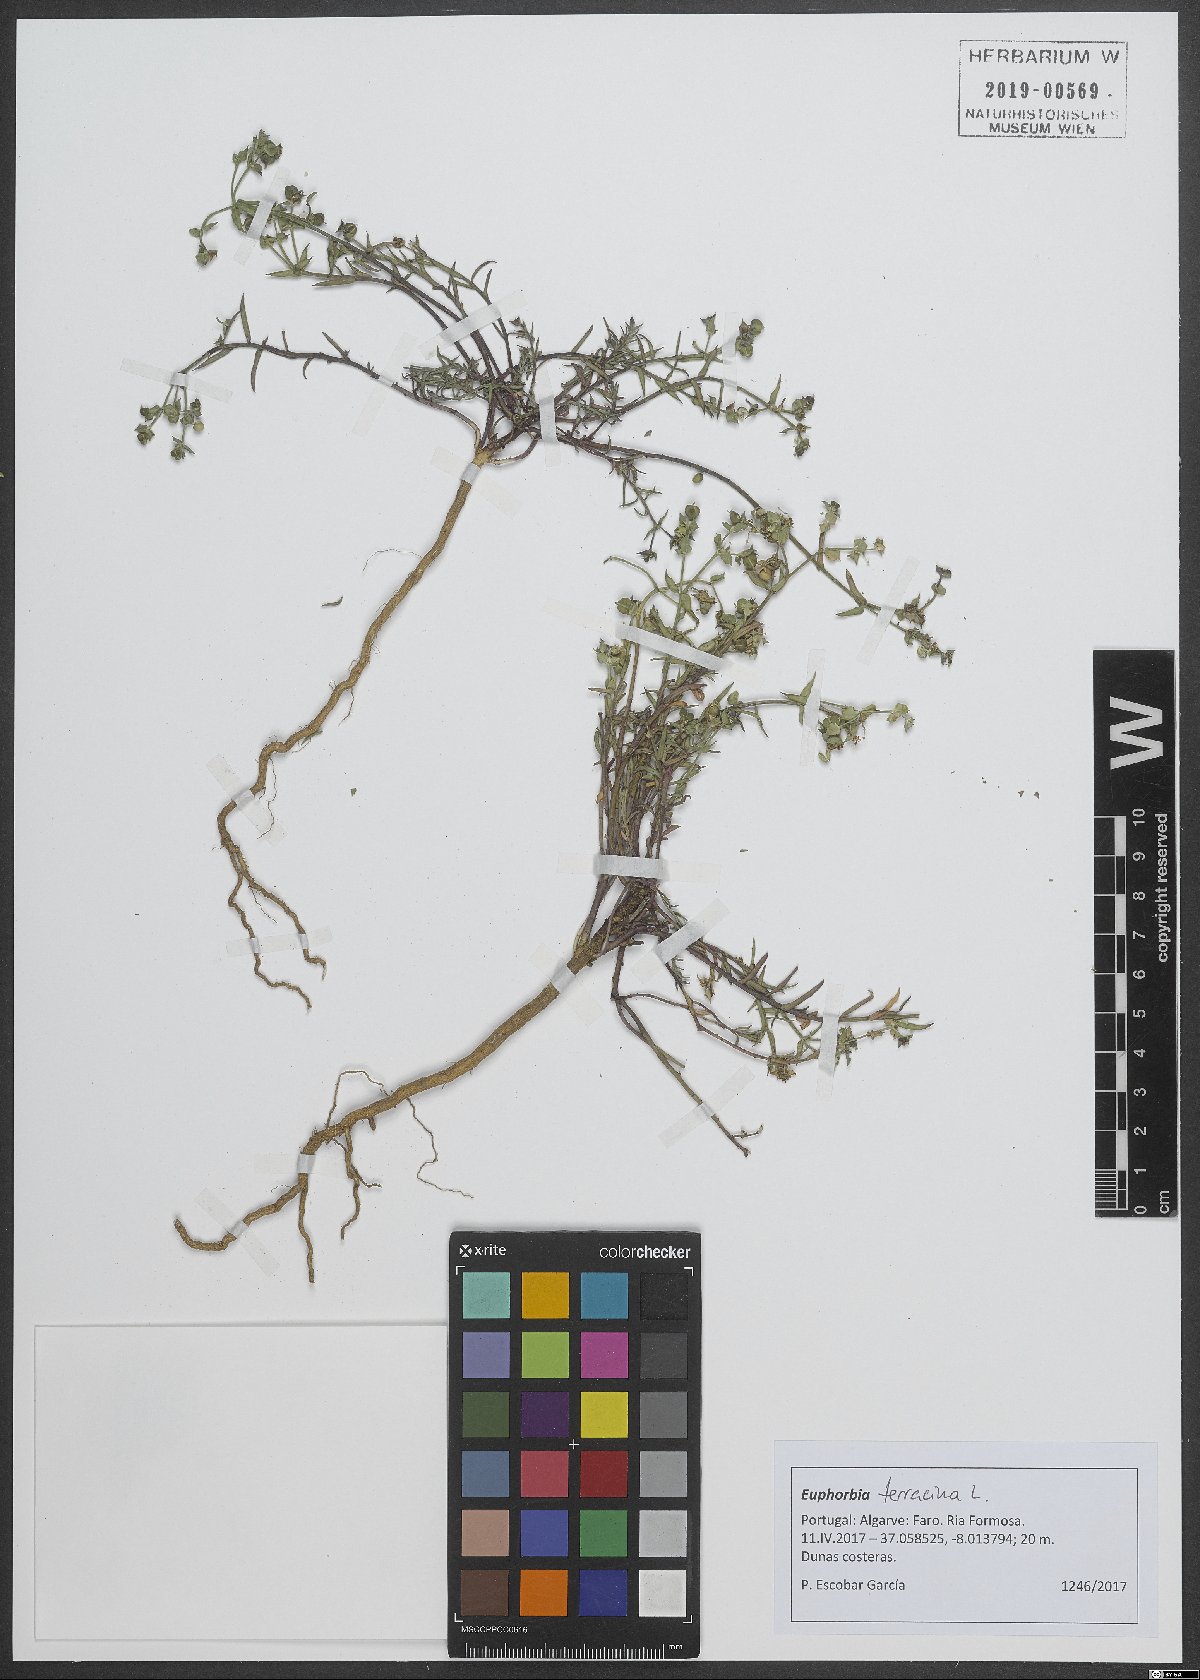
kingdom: Plantae
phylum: Tracheophyta
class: Magnoliopsida
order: Malpighiales
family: Euphorbiaceae
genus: Euphorbia
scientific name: Euphorbia terracina
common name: Geraldton carnation weed
